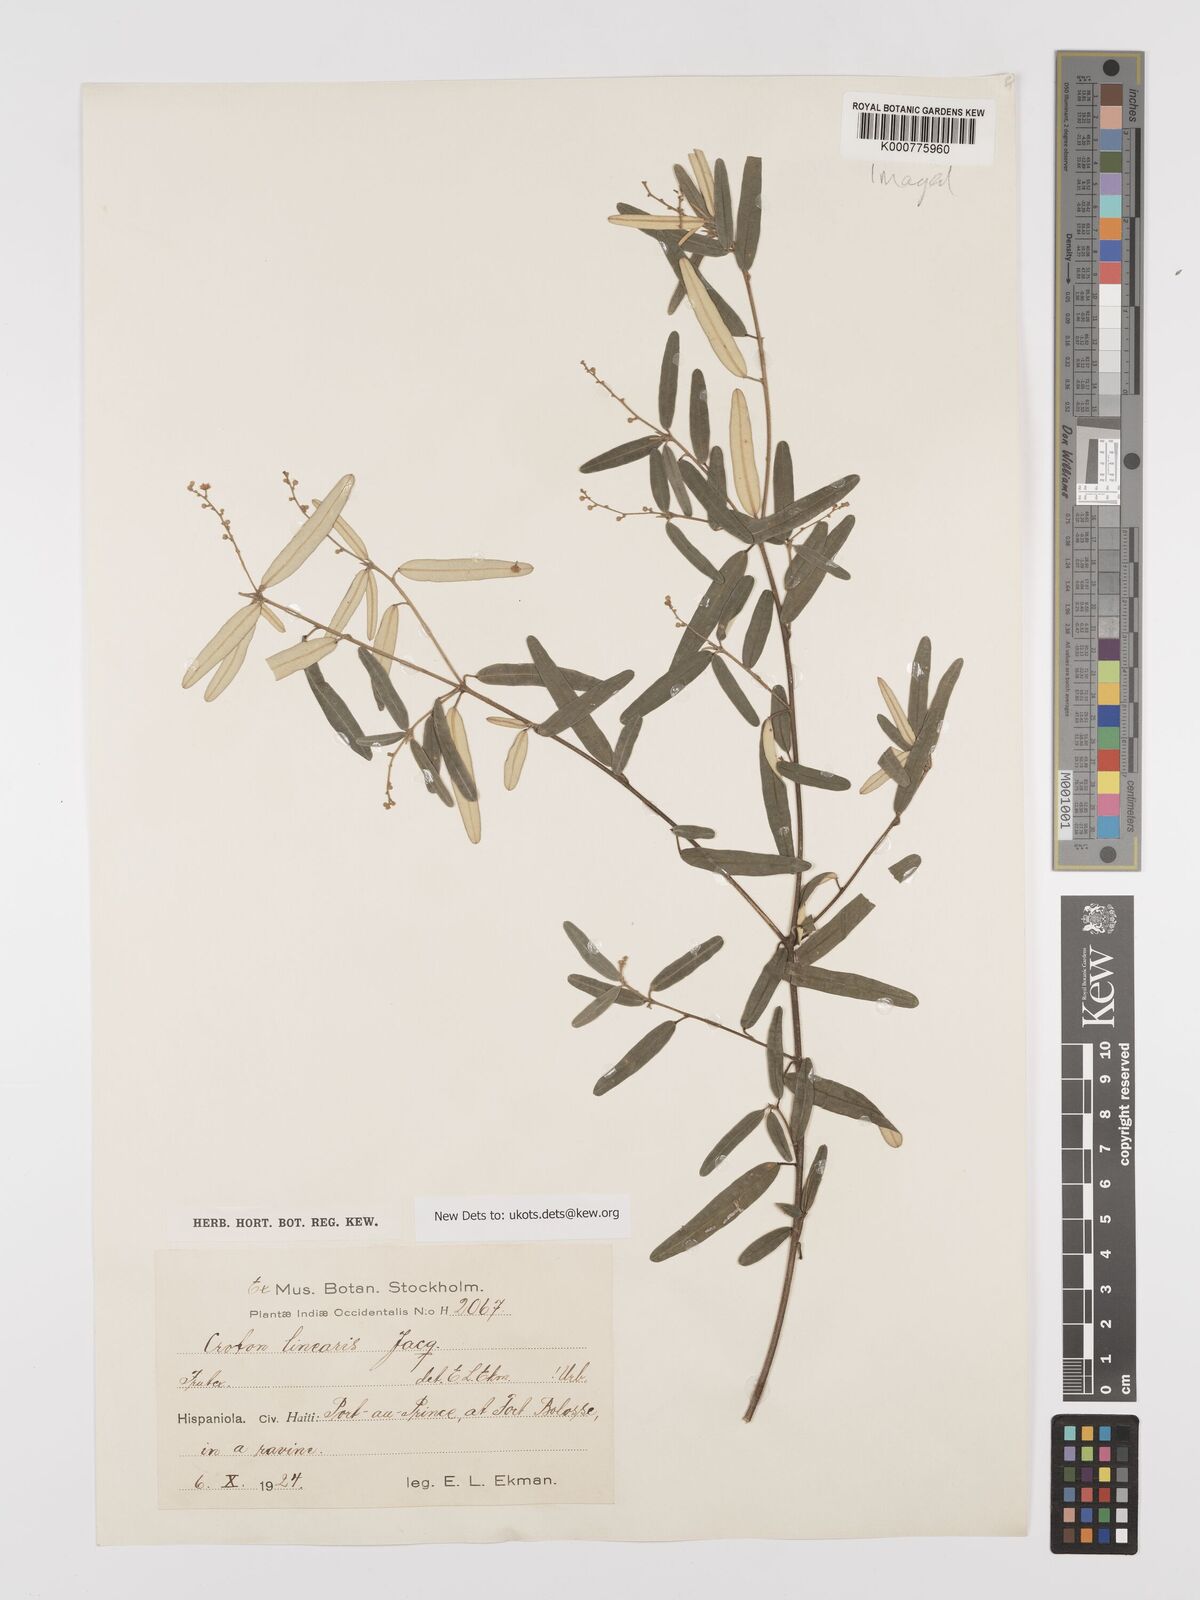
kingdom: Plantae
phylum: Tracheophyta
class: Magnoliopsida
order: Malpighiales
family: Euphorbiaceae
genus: Croton
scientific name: Croton linearis
